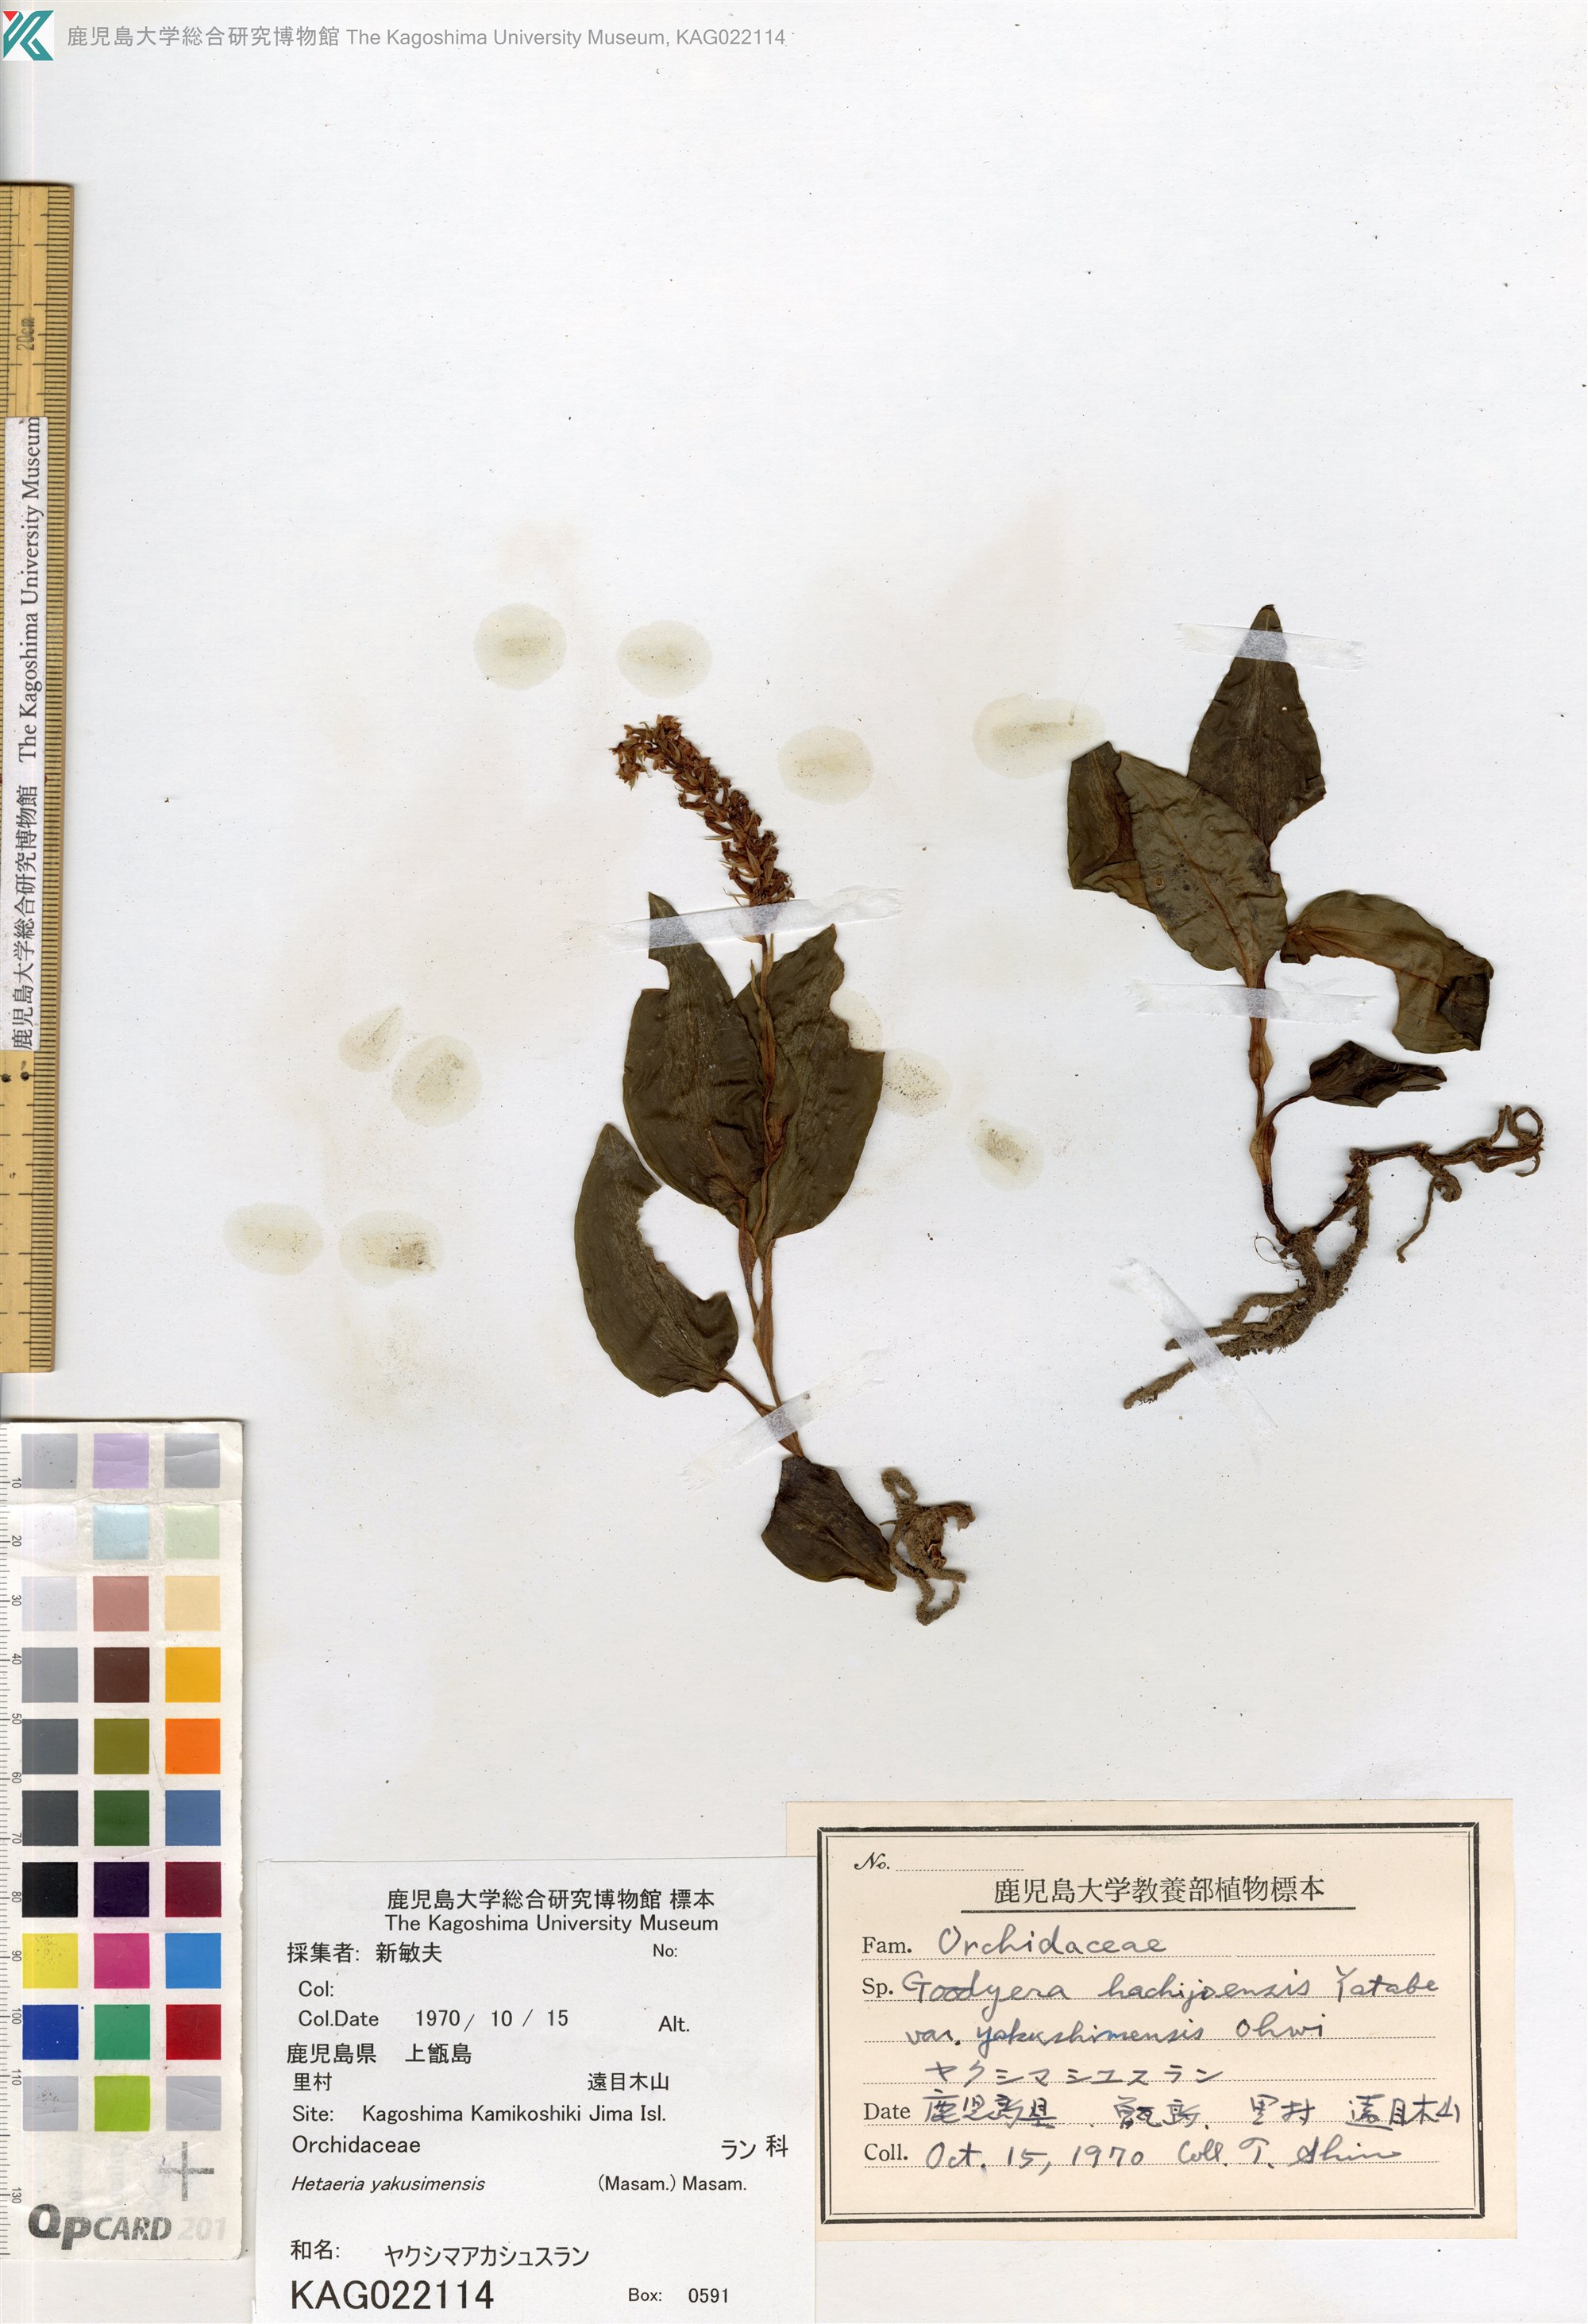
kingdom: Plantae
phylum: Tracheophyta
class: Liliopsida
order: Asparagales
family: Orchidaceae
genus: Rhomboda
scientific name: Rhomboda yakusimensis
